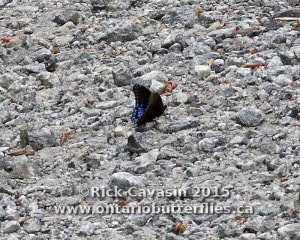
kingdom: Animalia
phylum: Arthropoda
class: Insecta
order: Lepidoptera
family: Nymphalidae
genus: Limenitis
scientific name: Limenitis astyanax
